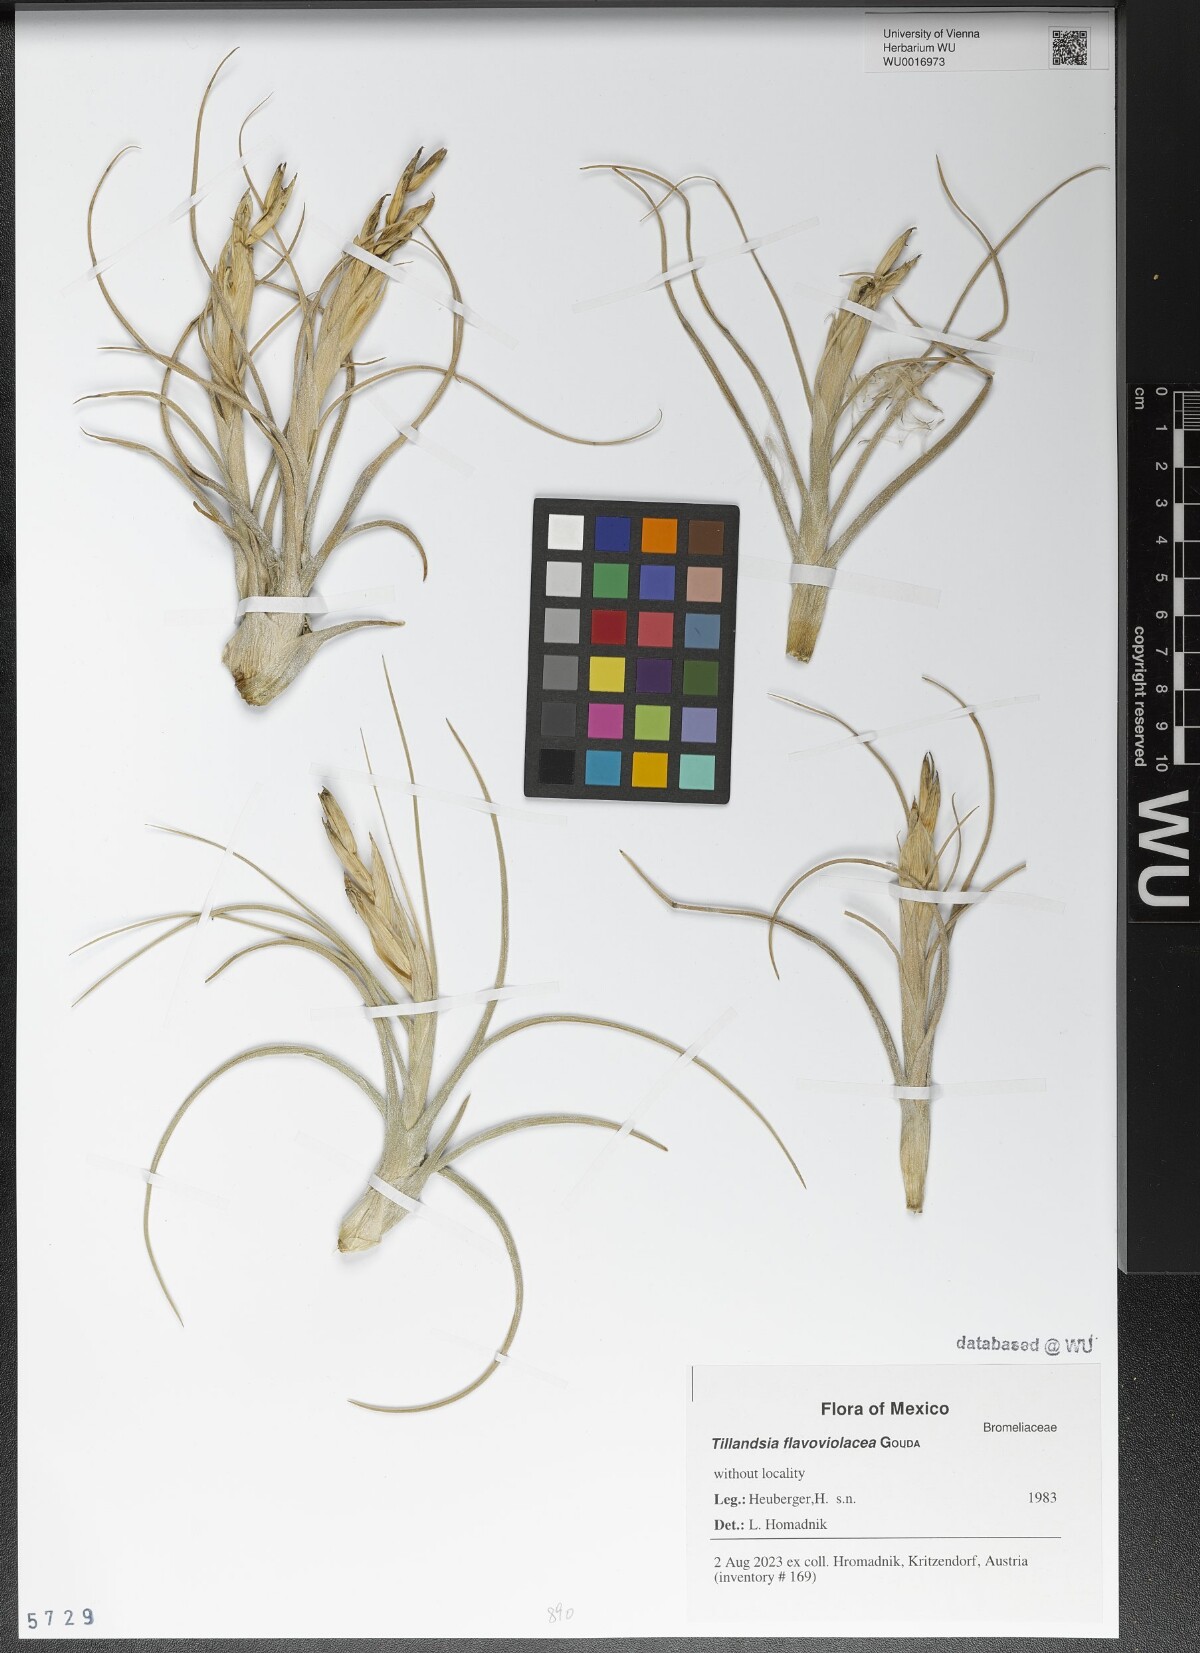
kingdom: Plantae
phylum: Tracheophyta
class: Liliopsida
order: Poales
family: Bromeliaceae
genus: Tillandsia
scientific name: Tillandsia flavoviolacea
